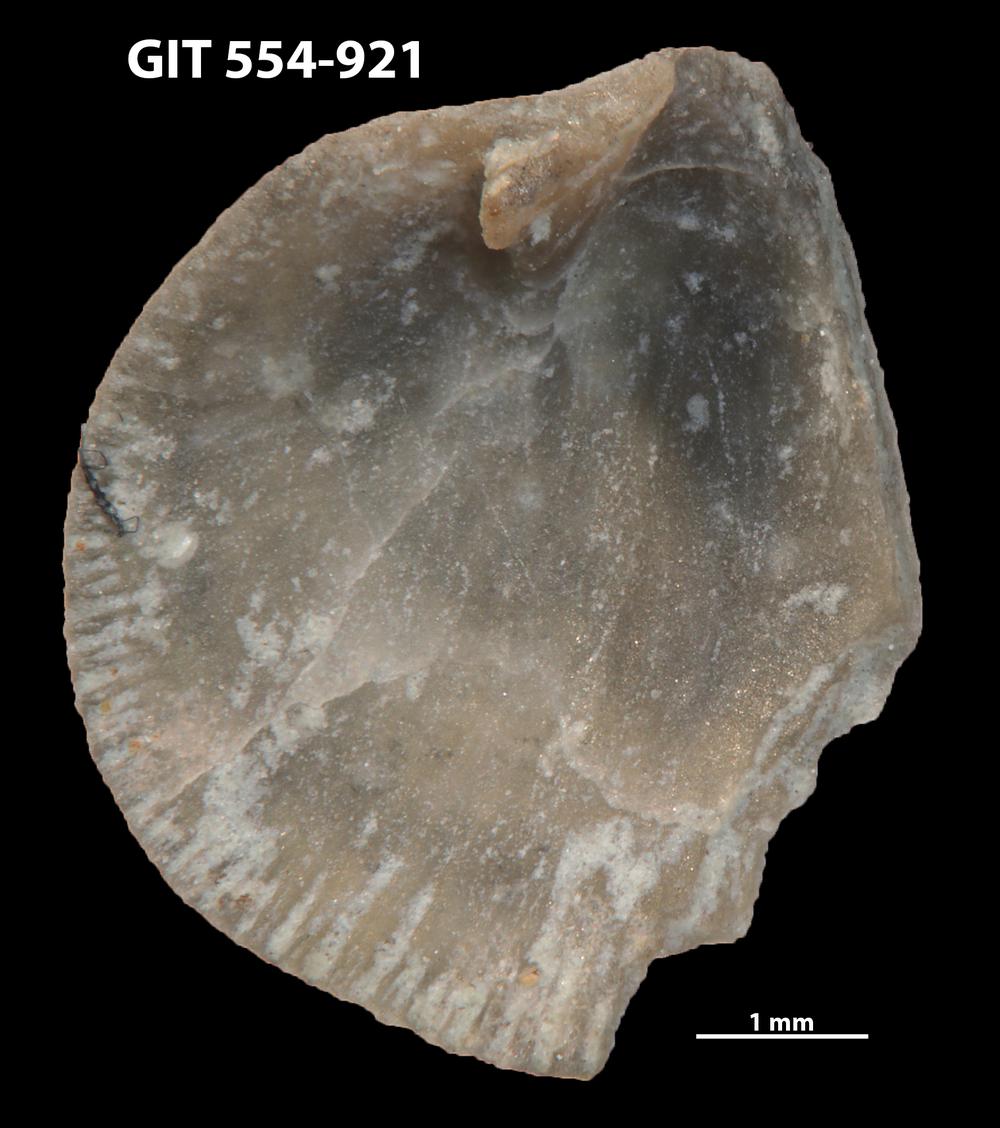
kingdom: Animalia
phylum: Brachiopoda
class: Rhynchonellata
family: Rhipidomellidae
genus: Mendacella
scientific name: Mendacella Orthis hybrida
